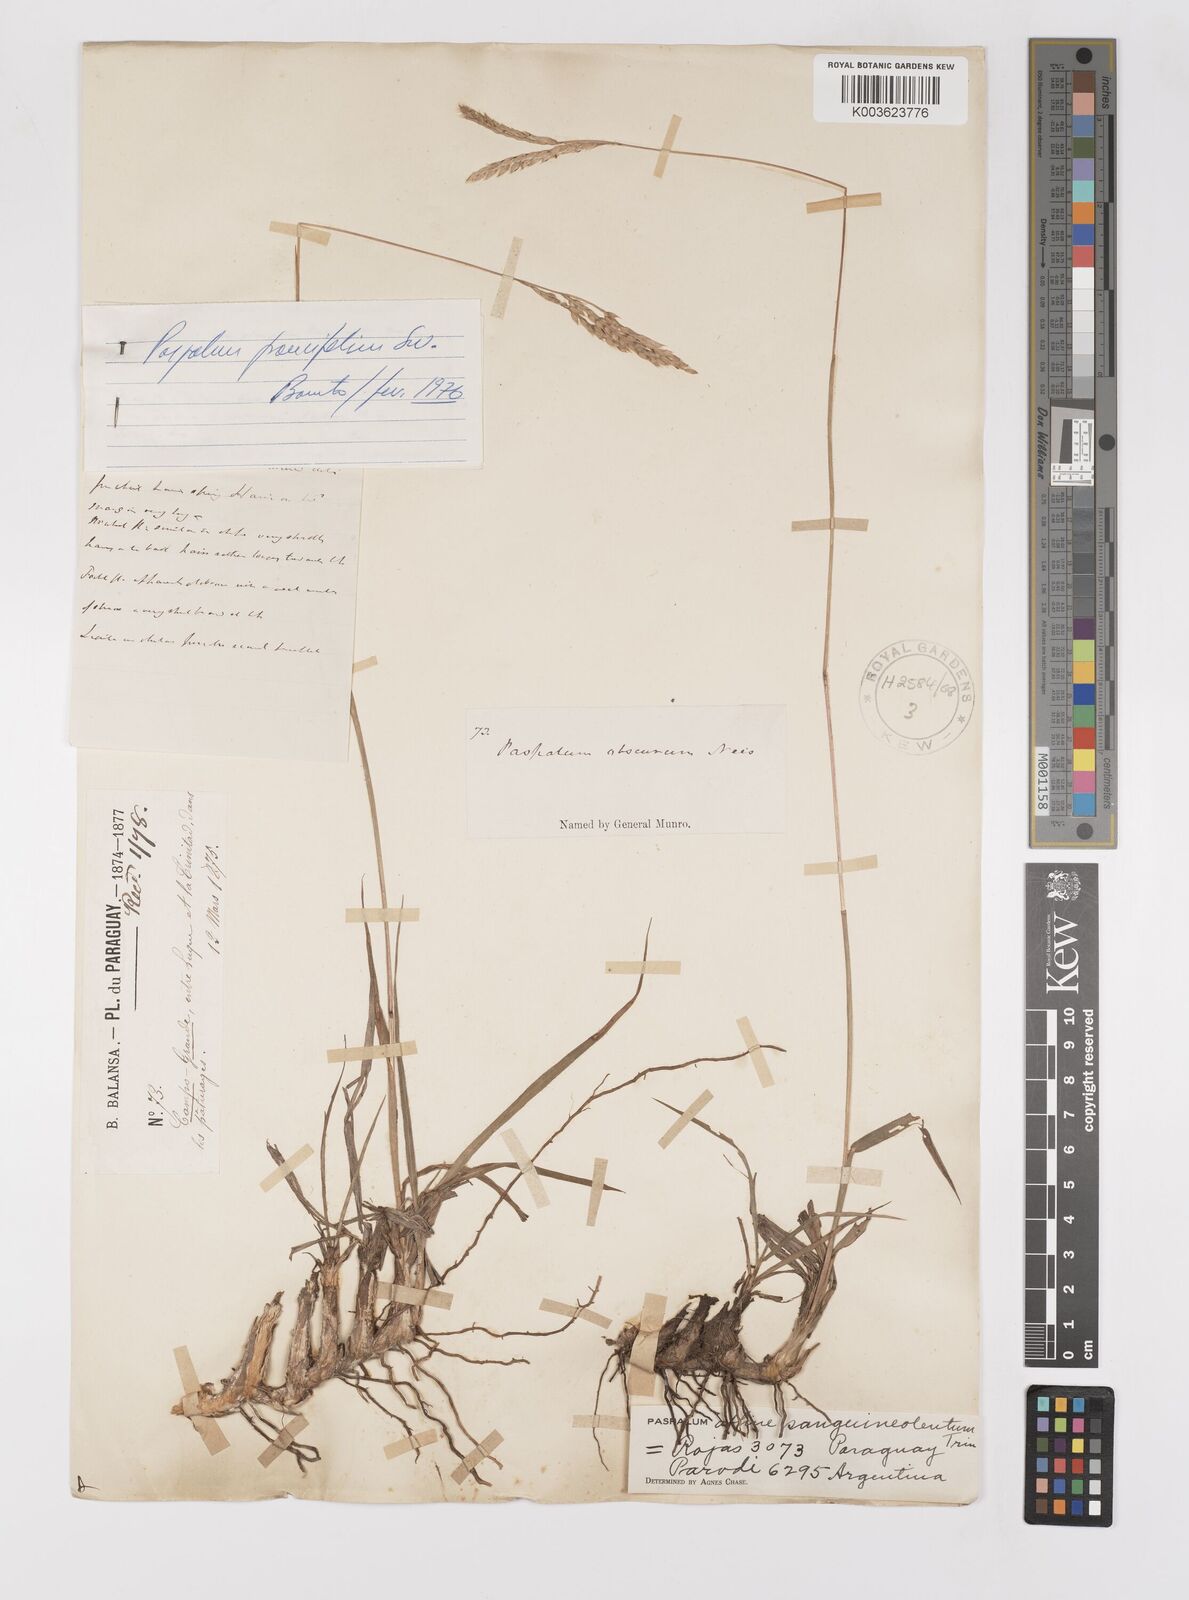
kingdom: Plantae
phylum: Tracheophyta
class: Liliopsida
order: Poales
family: Poaceae
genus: Paspalum
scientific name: Paspalum paucifolium
